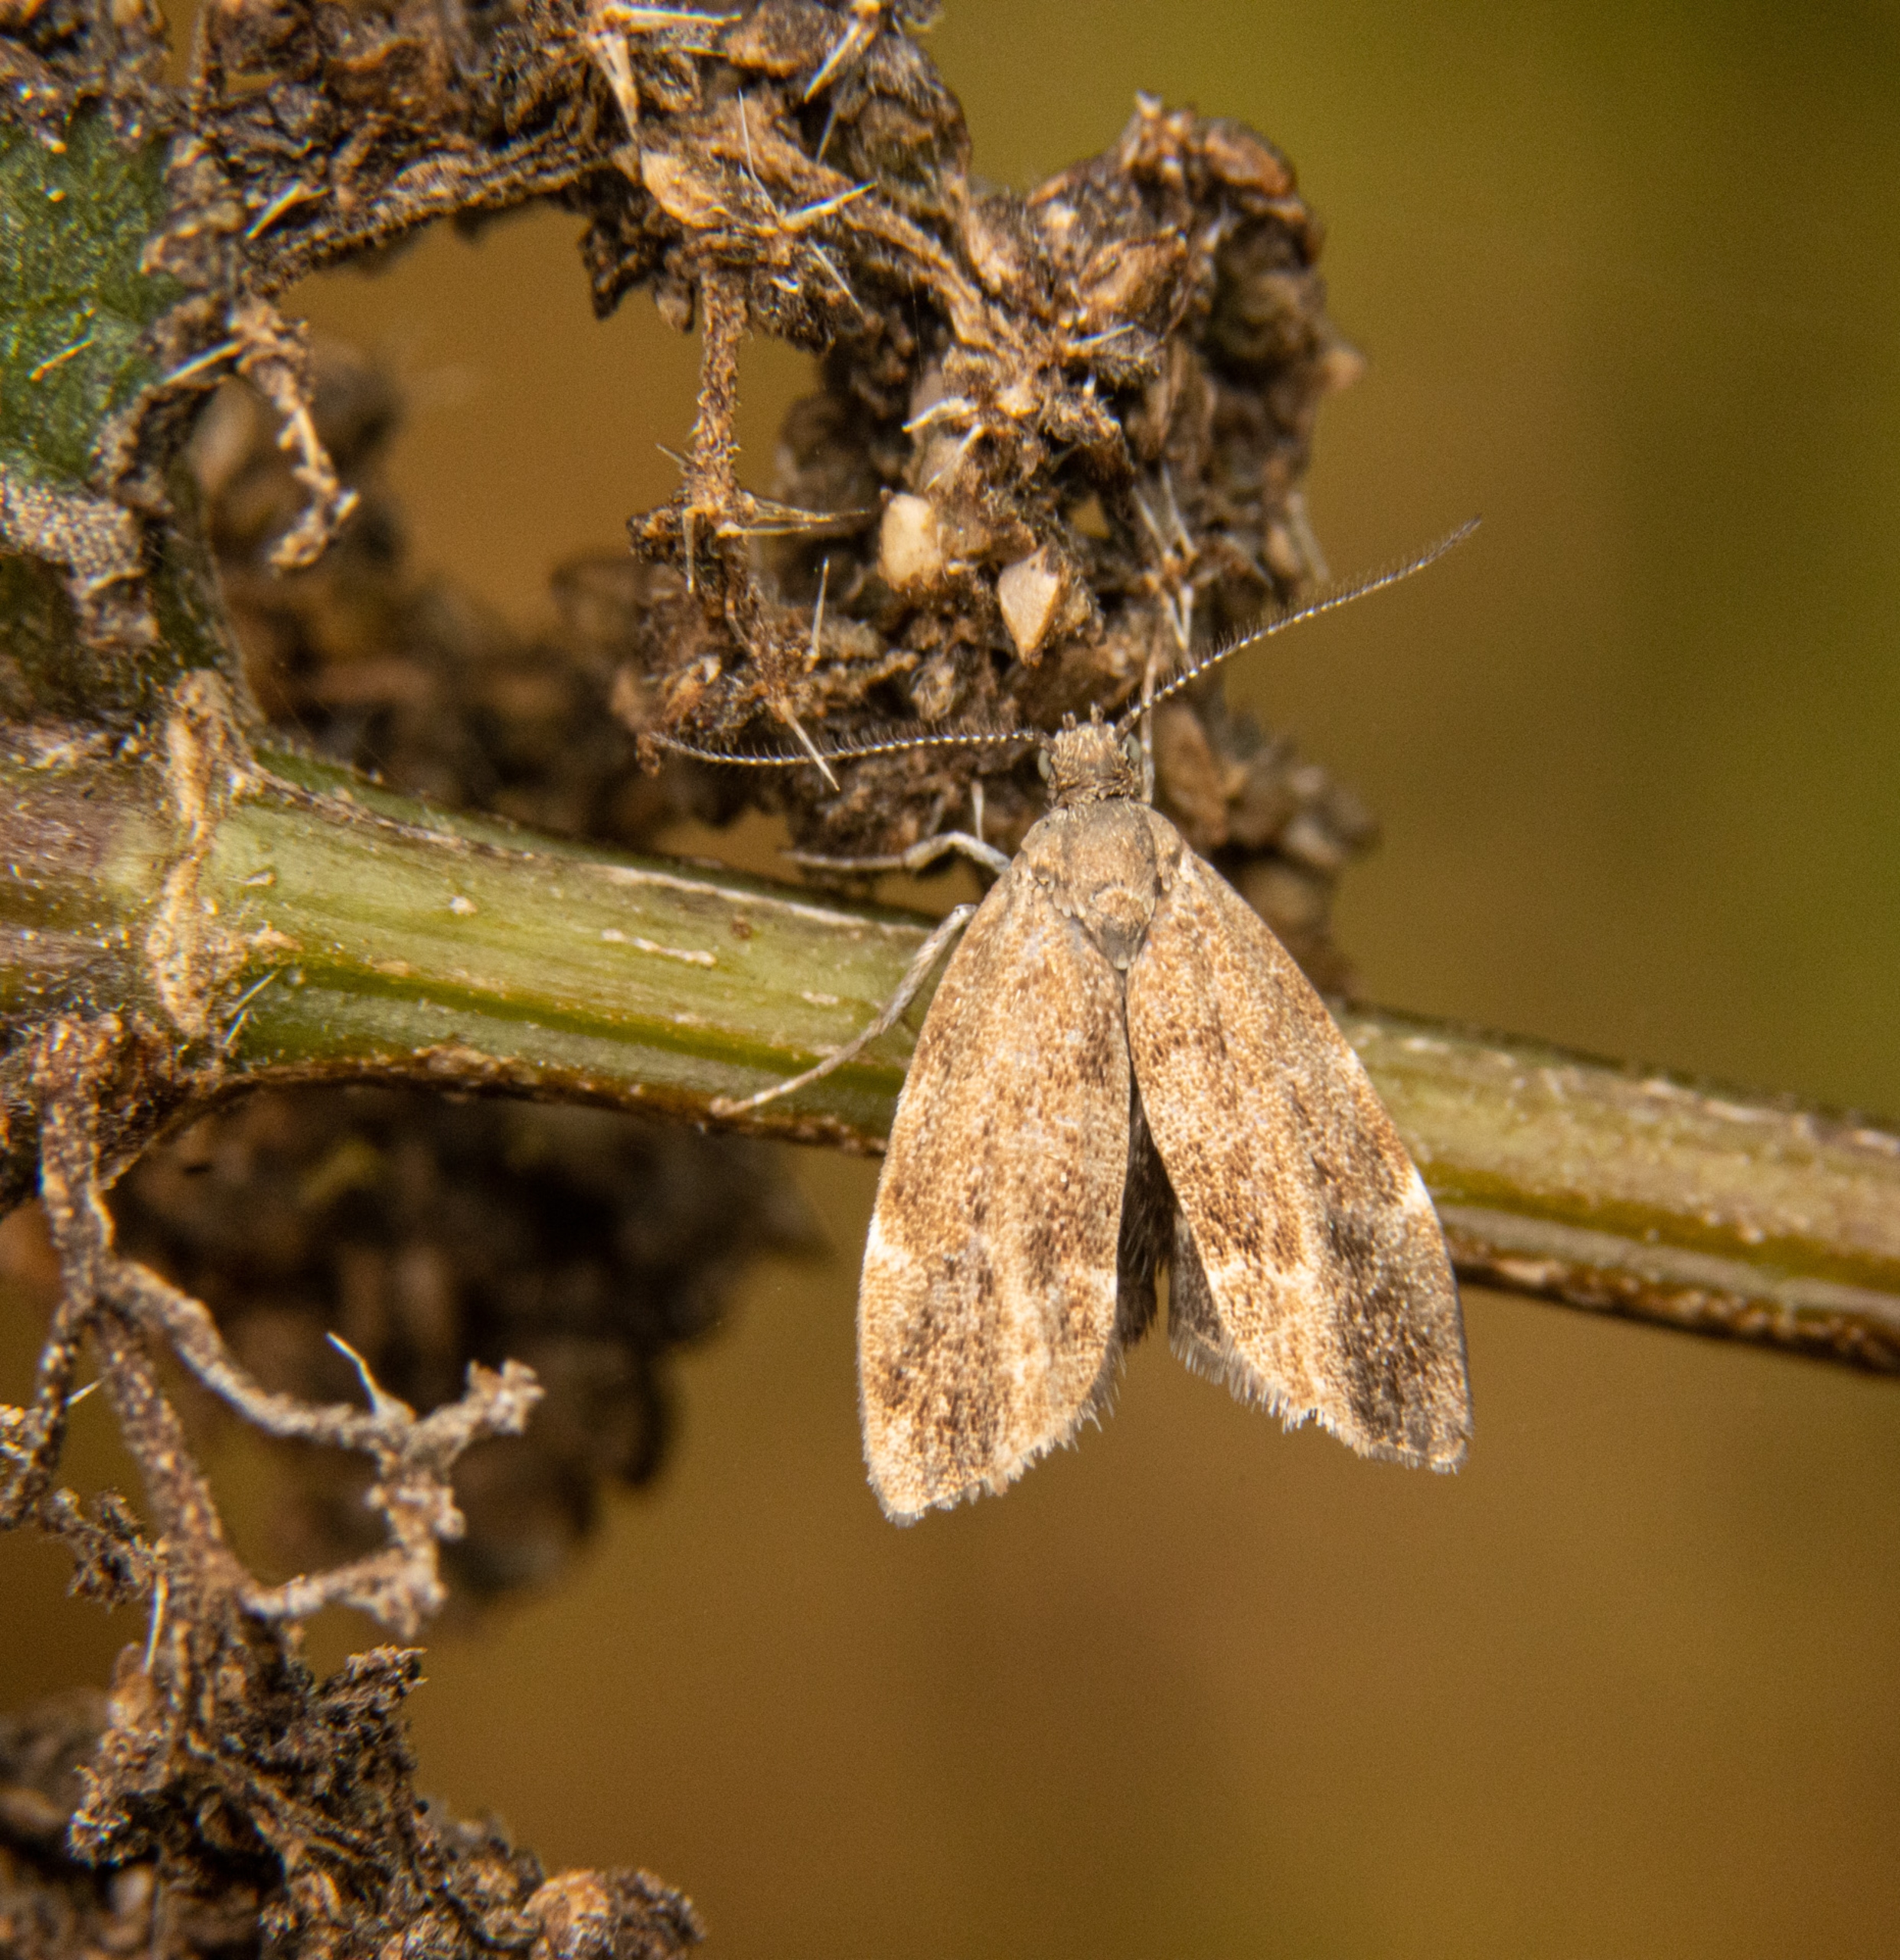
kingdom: Animalia
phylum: Arthropoda
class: Insecta
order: Lepidoptera
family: Choreutidae
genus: Anthophila
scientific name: Anthophila fabriciana
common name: Bredvinget nældevikler
